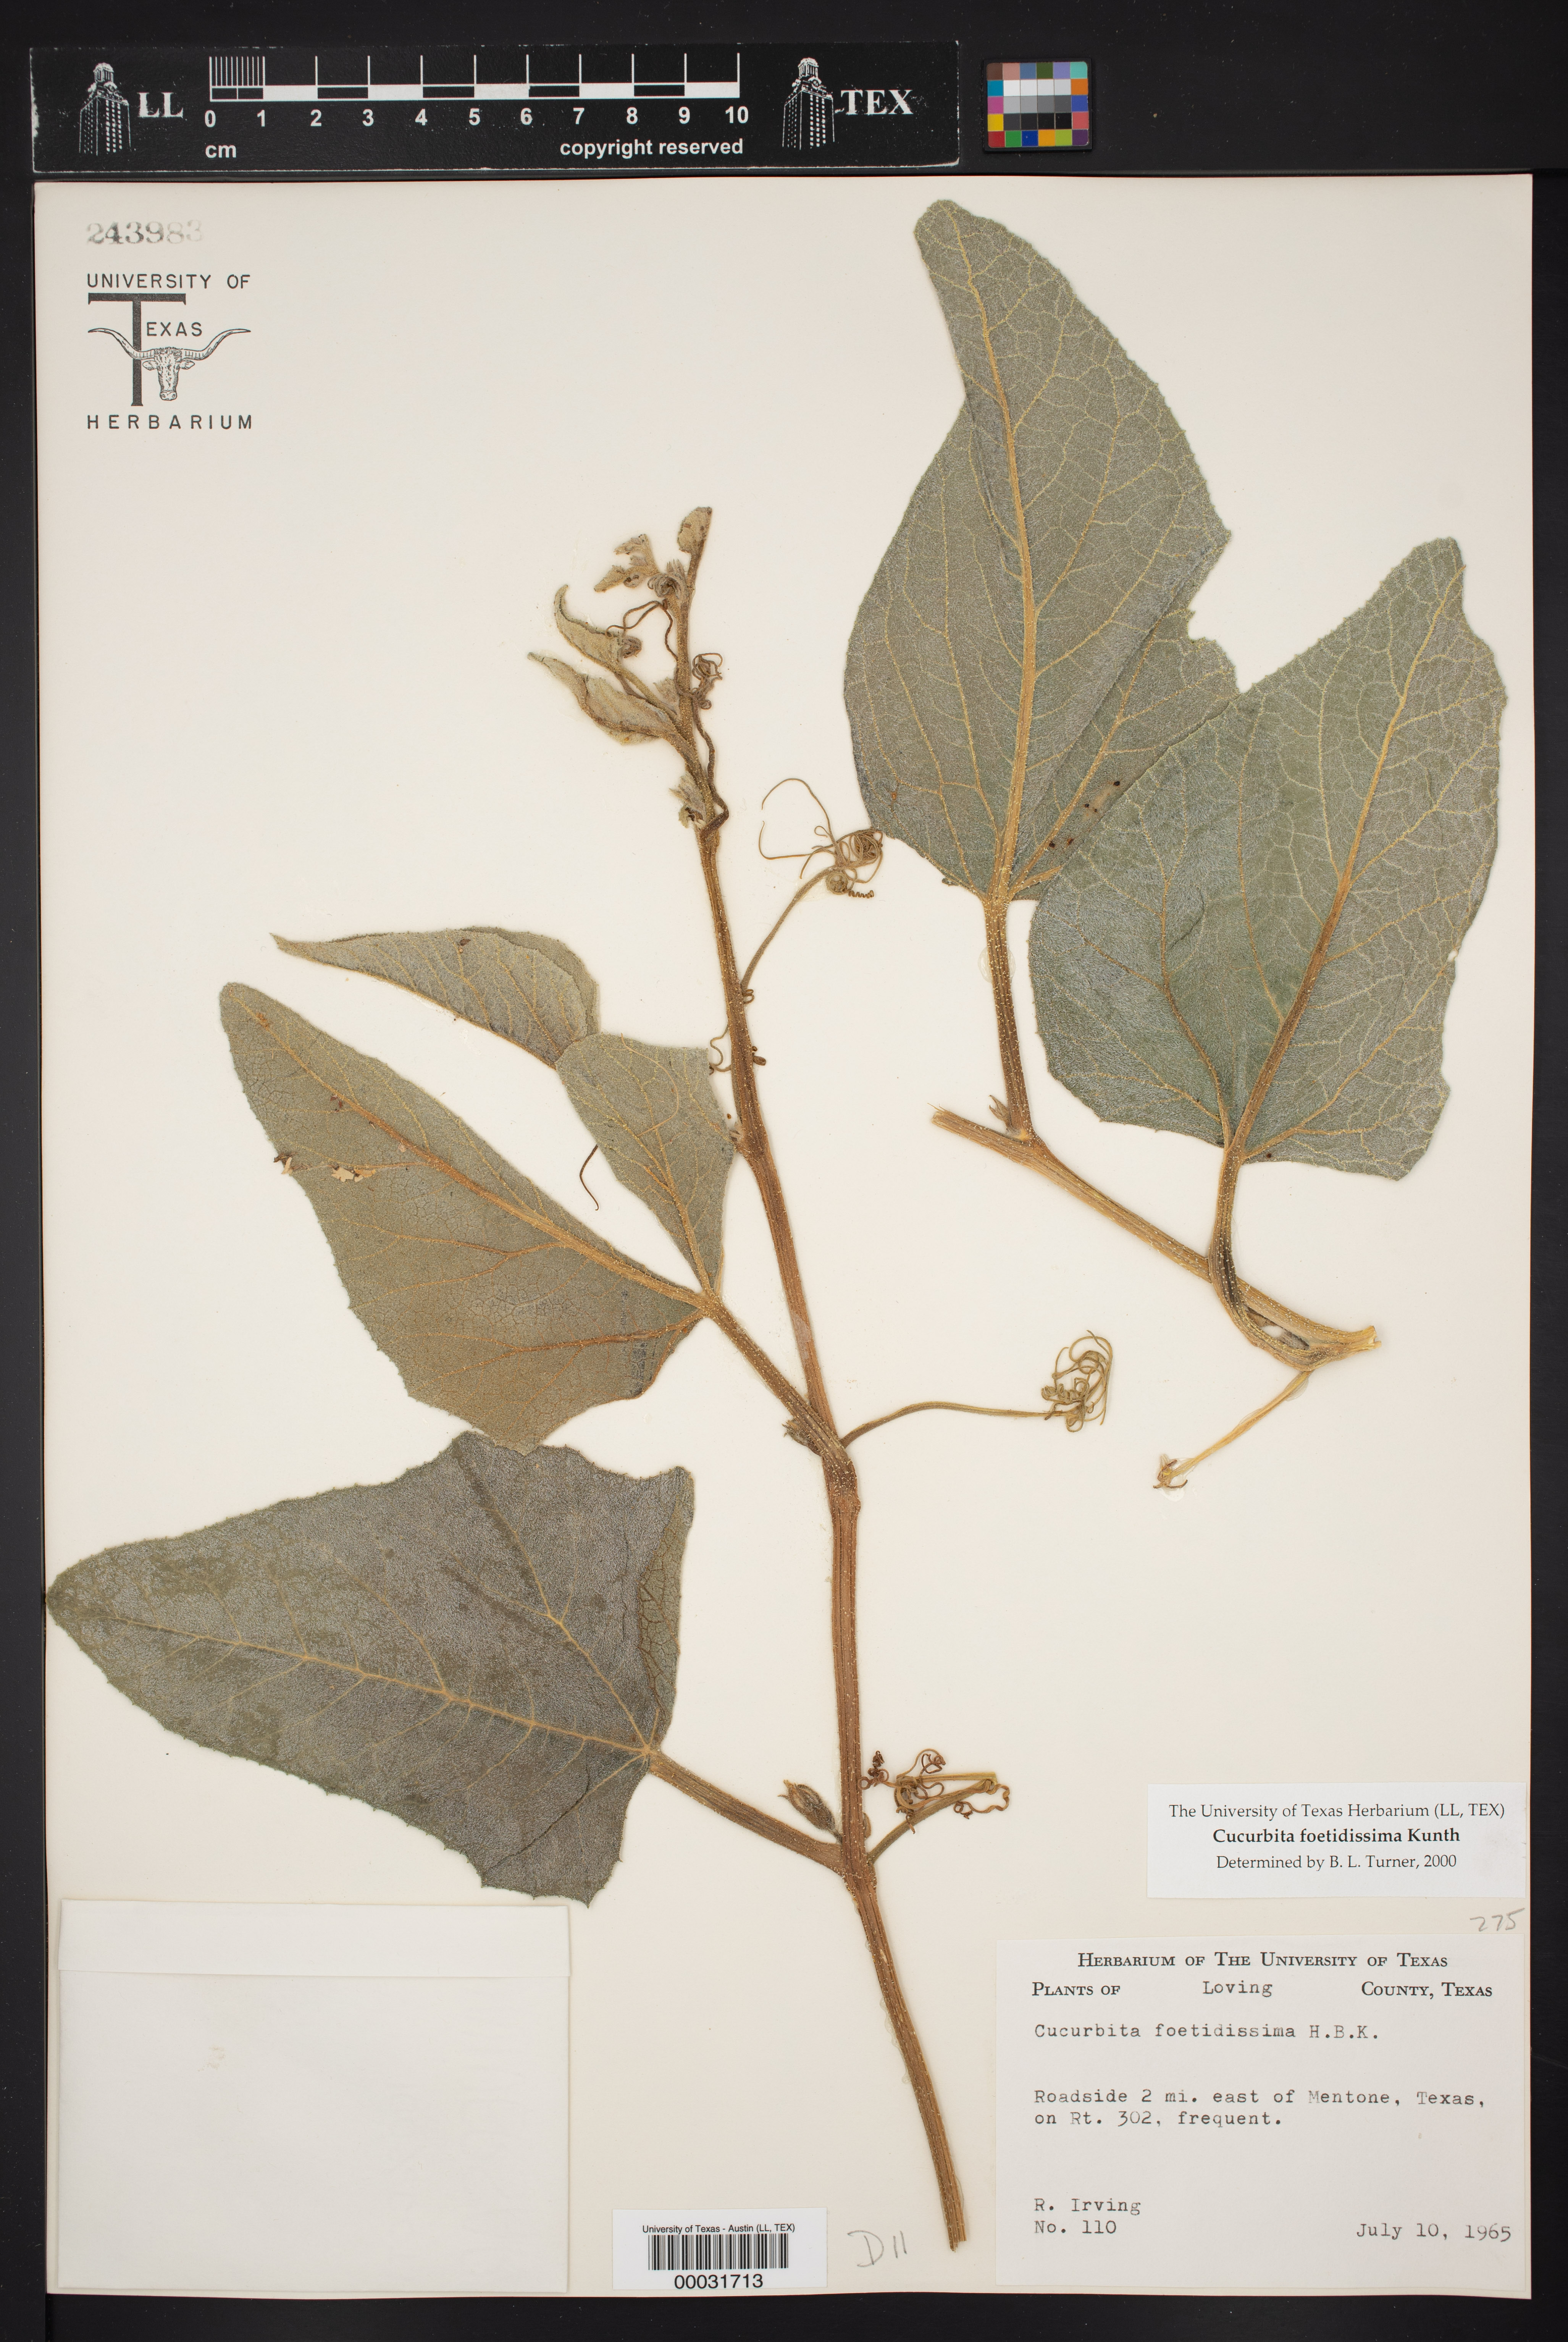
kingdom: Plantae
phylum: Tracheophyta
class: Magnoliopsida
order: Cucurbitales
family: Cucurbitaceae
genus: Cucurbita
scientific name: Cucurbita foetidissima
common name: Buffalo gourd
